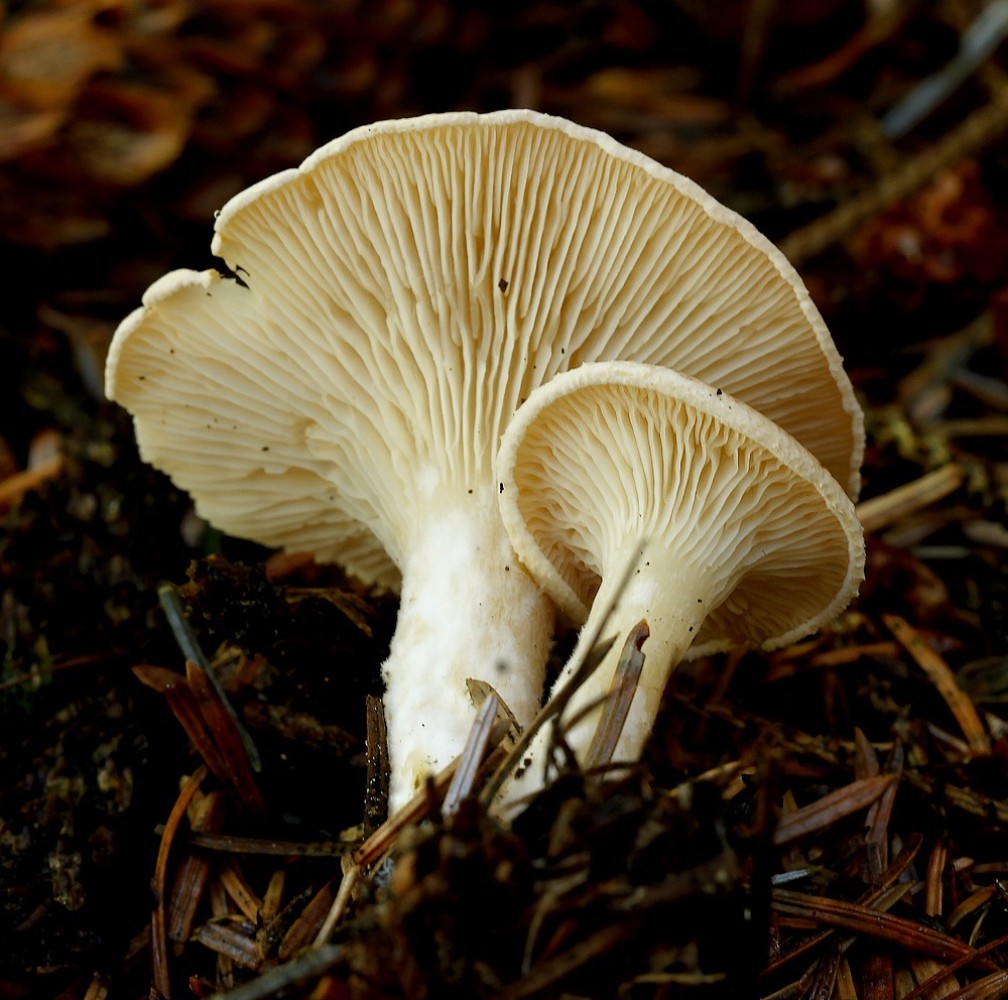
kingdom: Fungi
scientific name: Fungi
